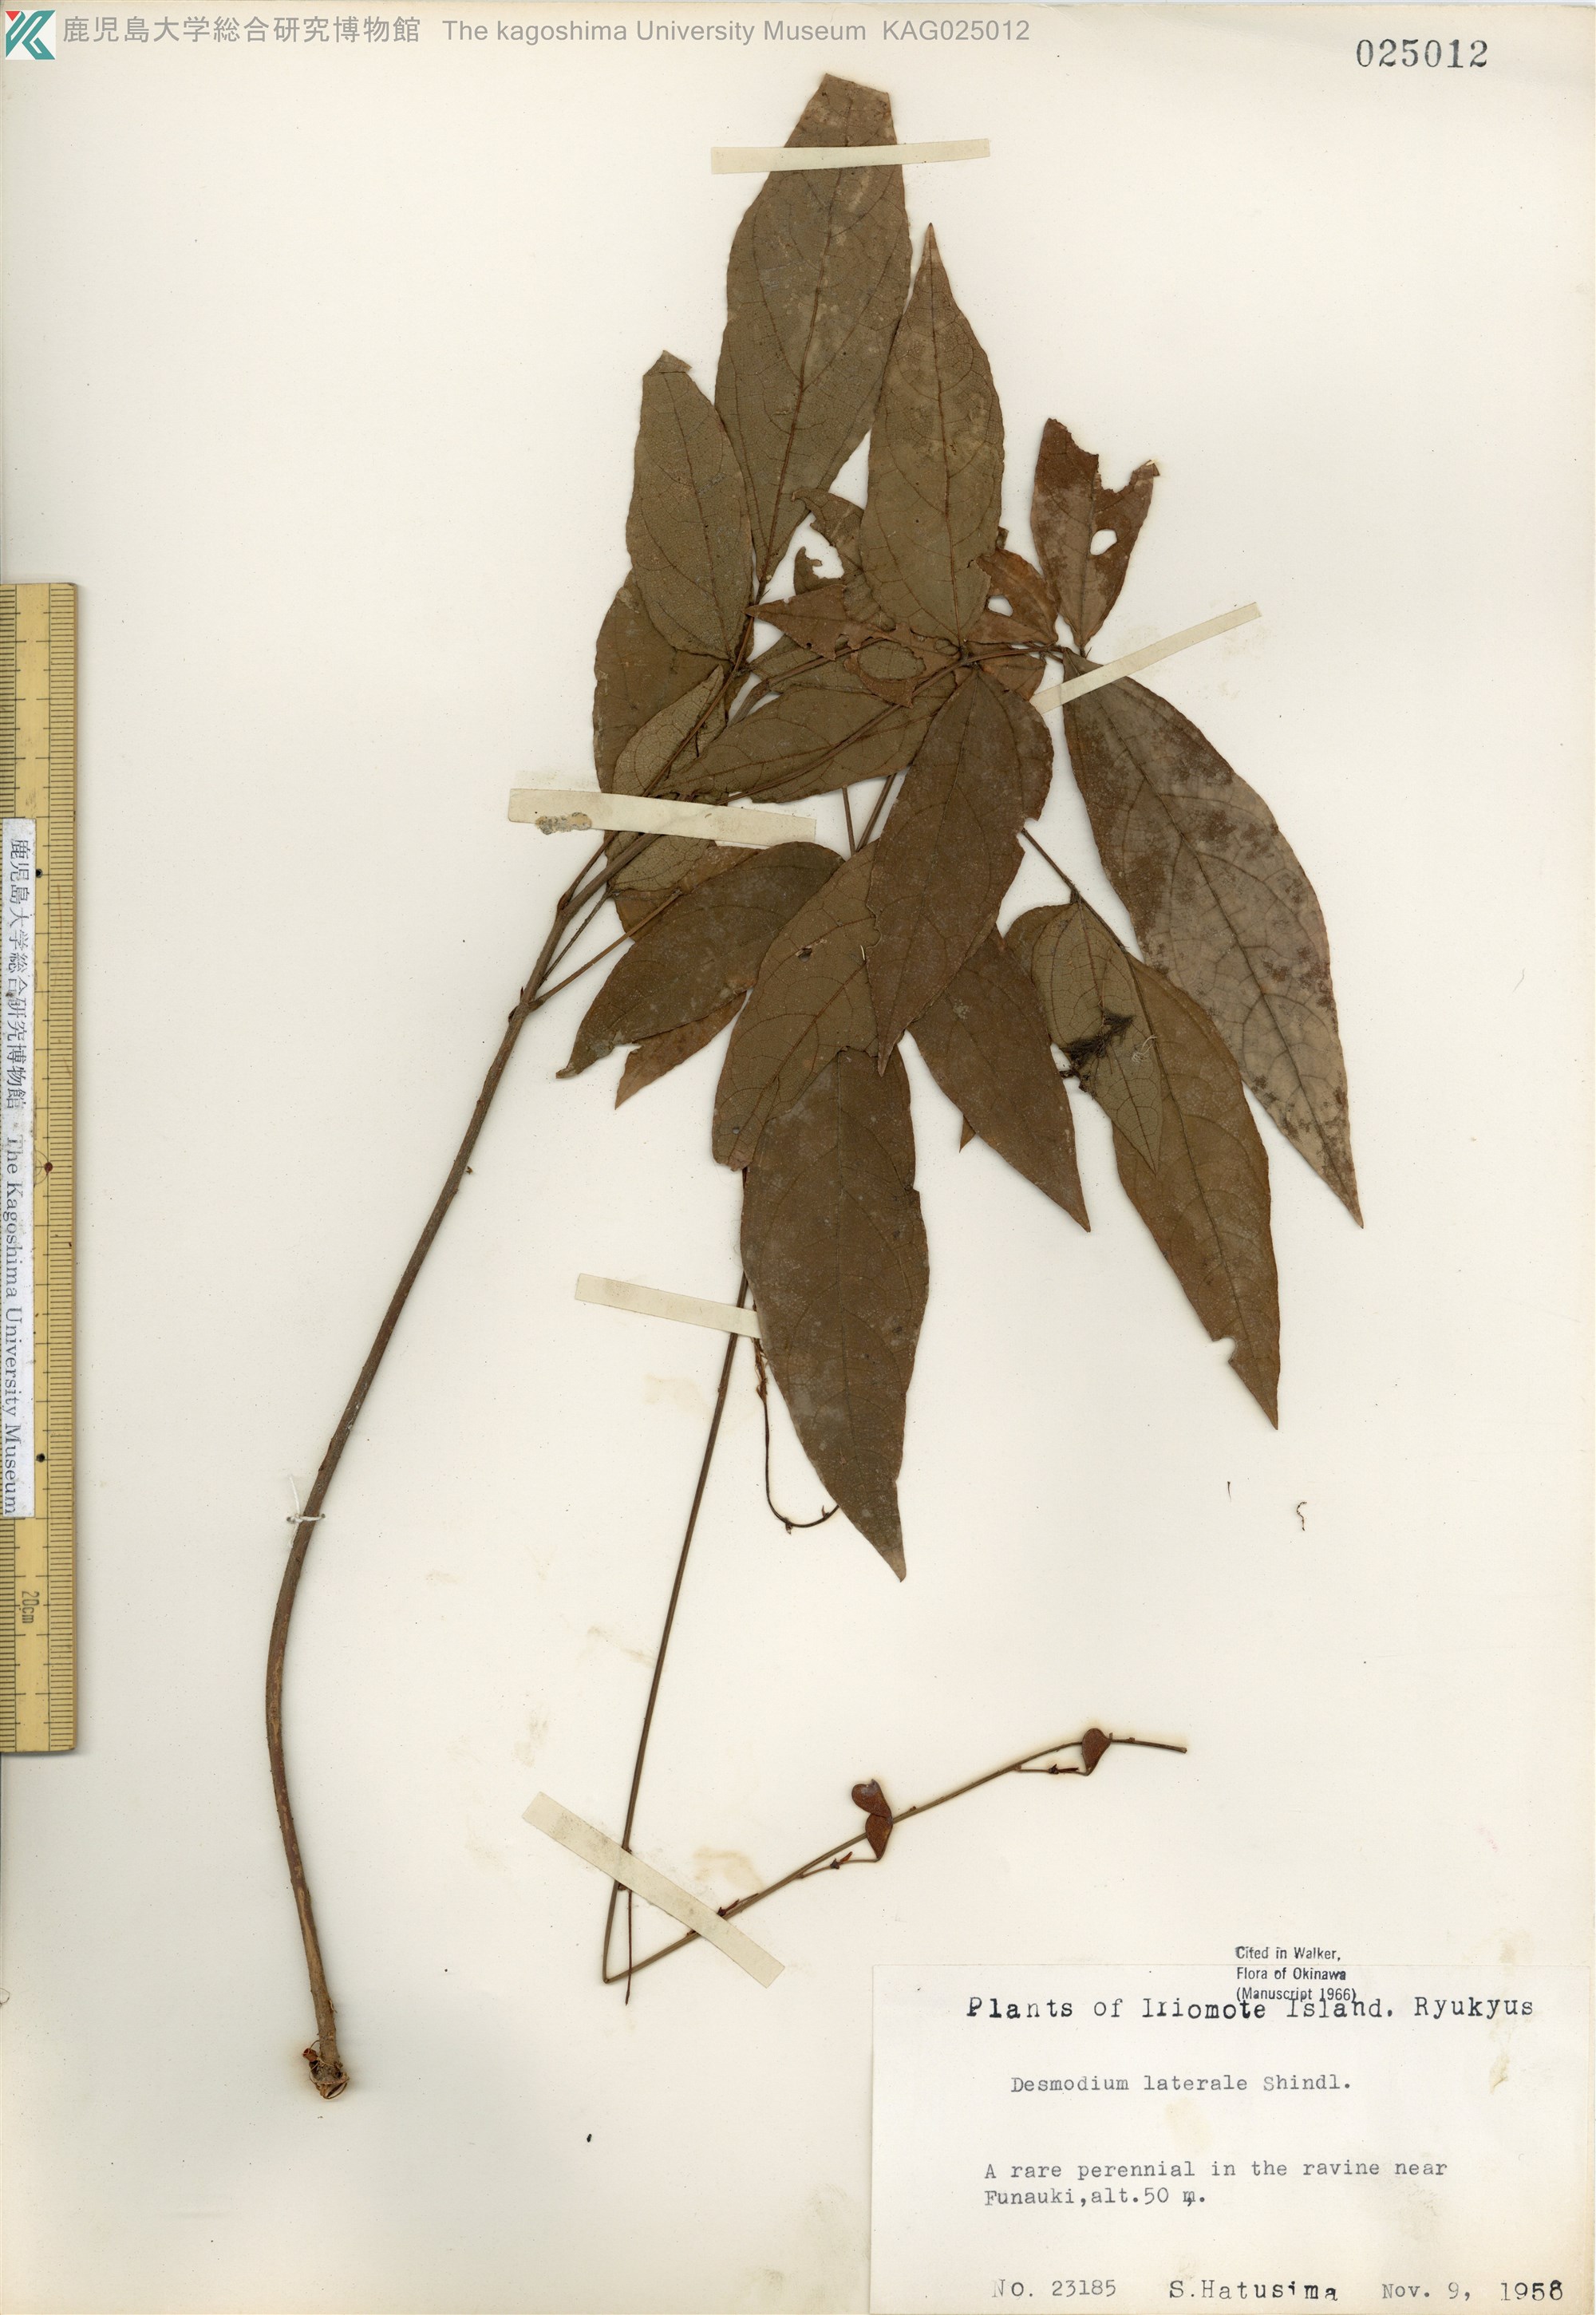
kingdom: Plantae
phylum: Tracheophyta
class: Magnoliopsida
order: Fabales
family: Fabaceae
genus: Hylodesmum
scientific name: Hylodesmum laterale
